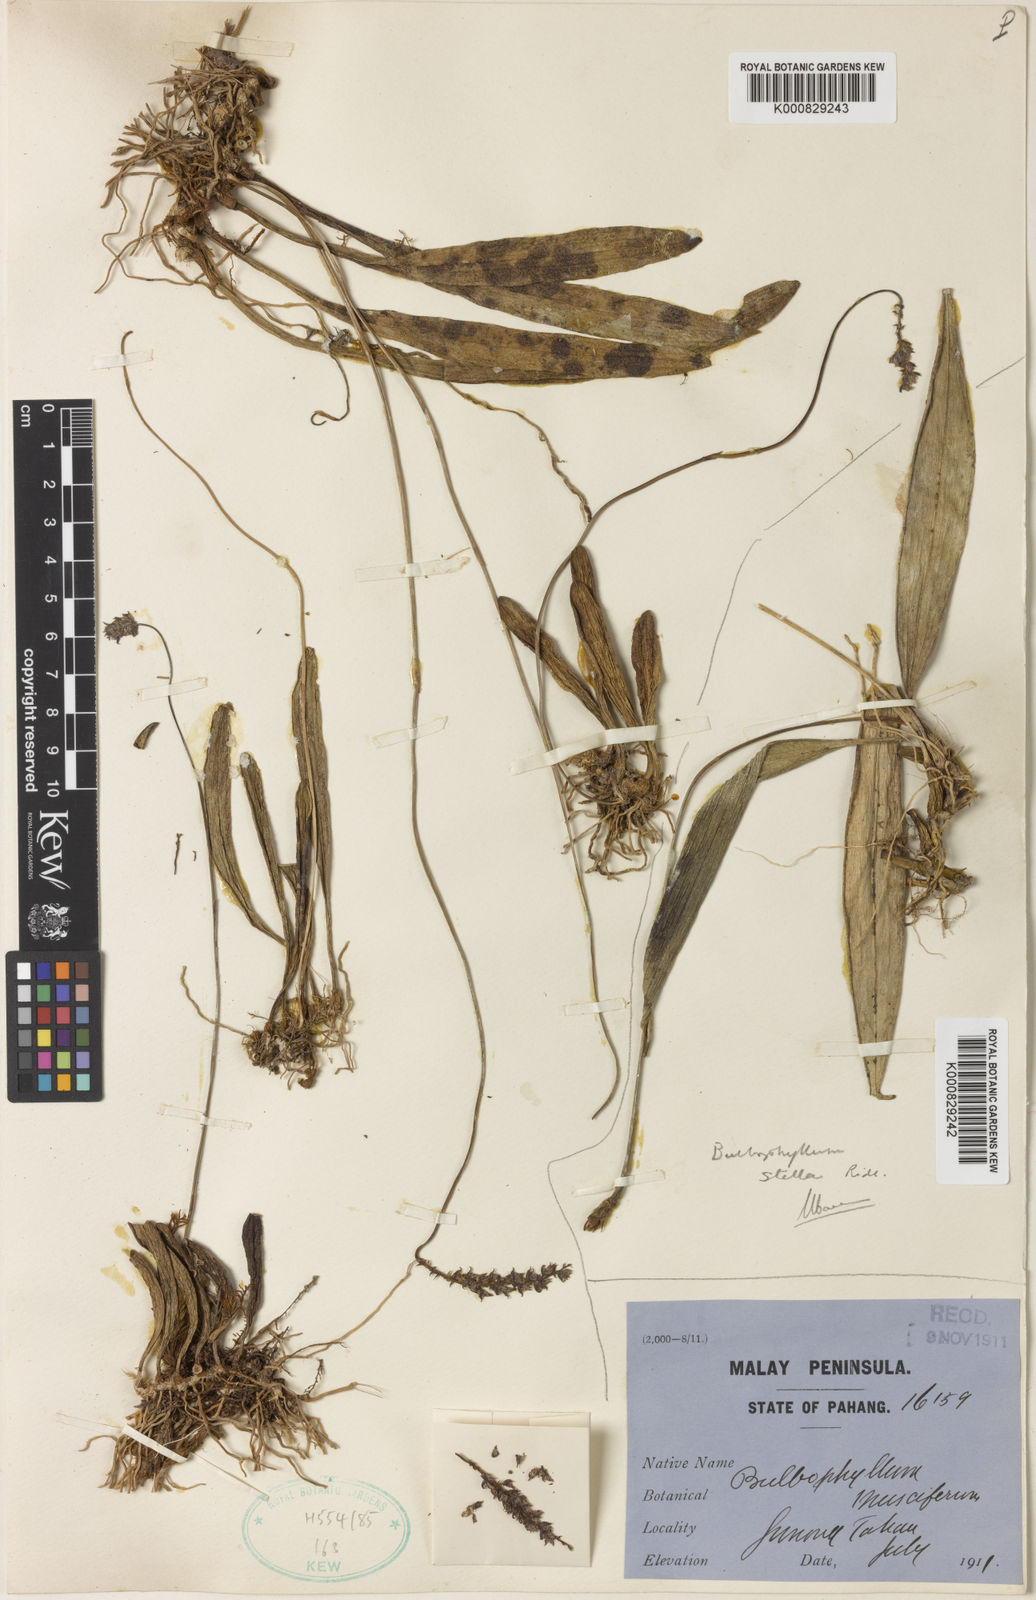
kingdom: Plantae
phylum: Tracheophyta
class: Liliopsida
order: Asparagales
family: Orchidaceae
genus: Bulbophyllum
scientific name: Bulbophyllum coniferum
